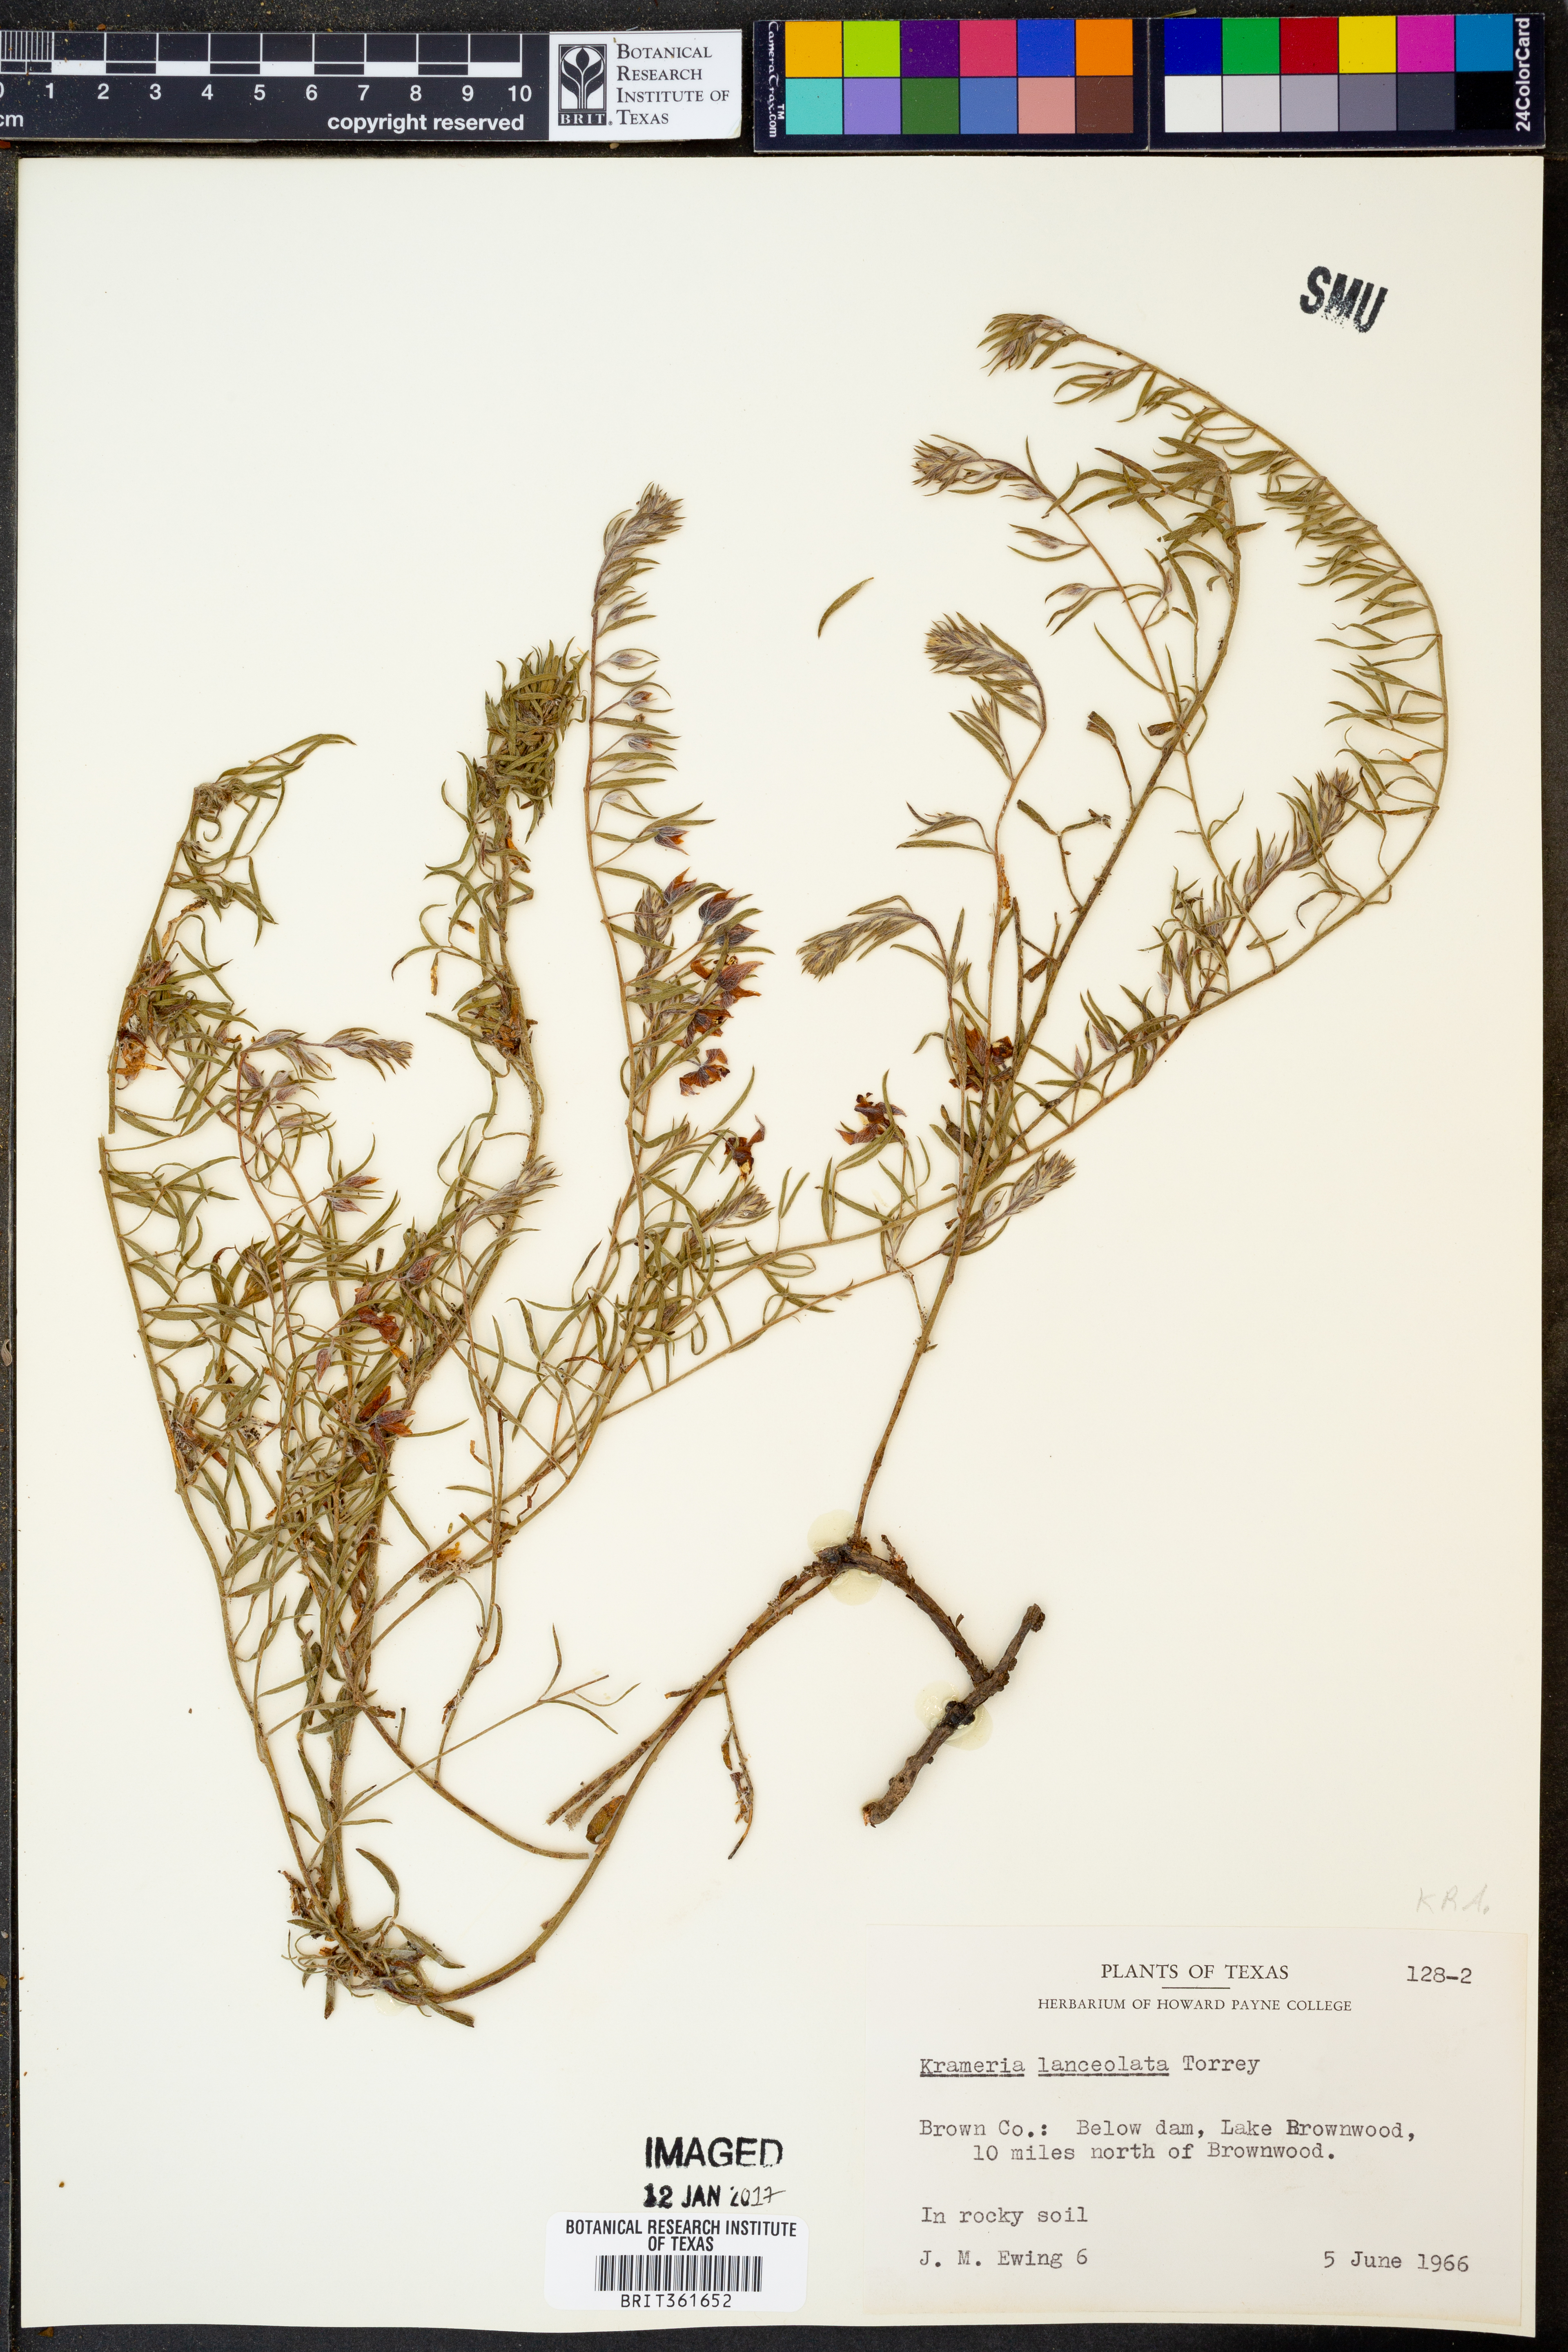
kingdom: Plantae
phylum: Tracheophyta
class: Magnoliopsida
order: Zygophyllales
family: Krameriaceae
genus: Krameria
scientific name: Krameria lanceolata
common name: Ratany
